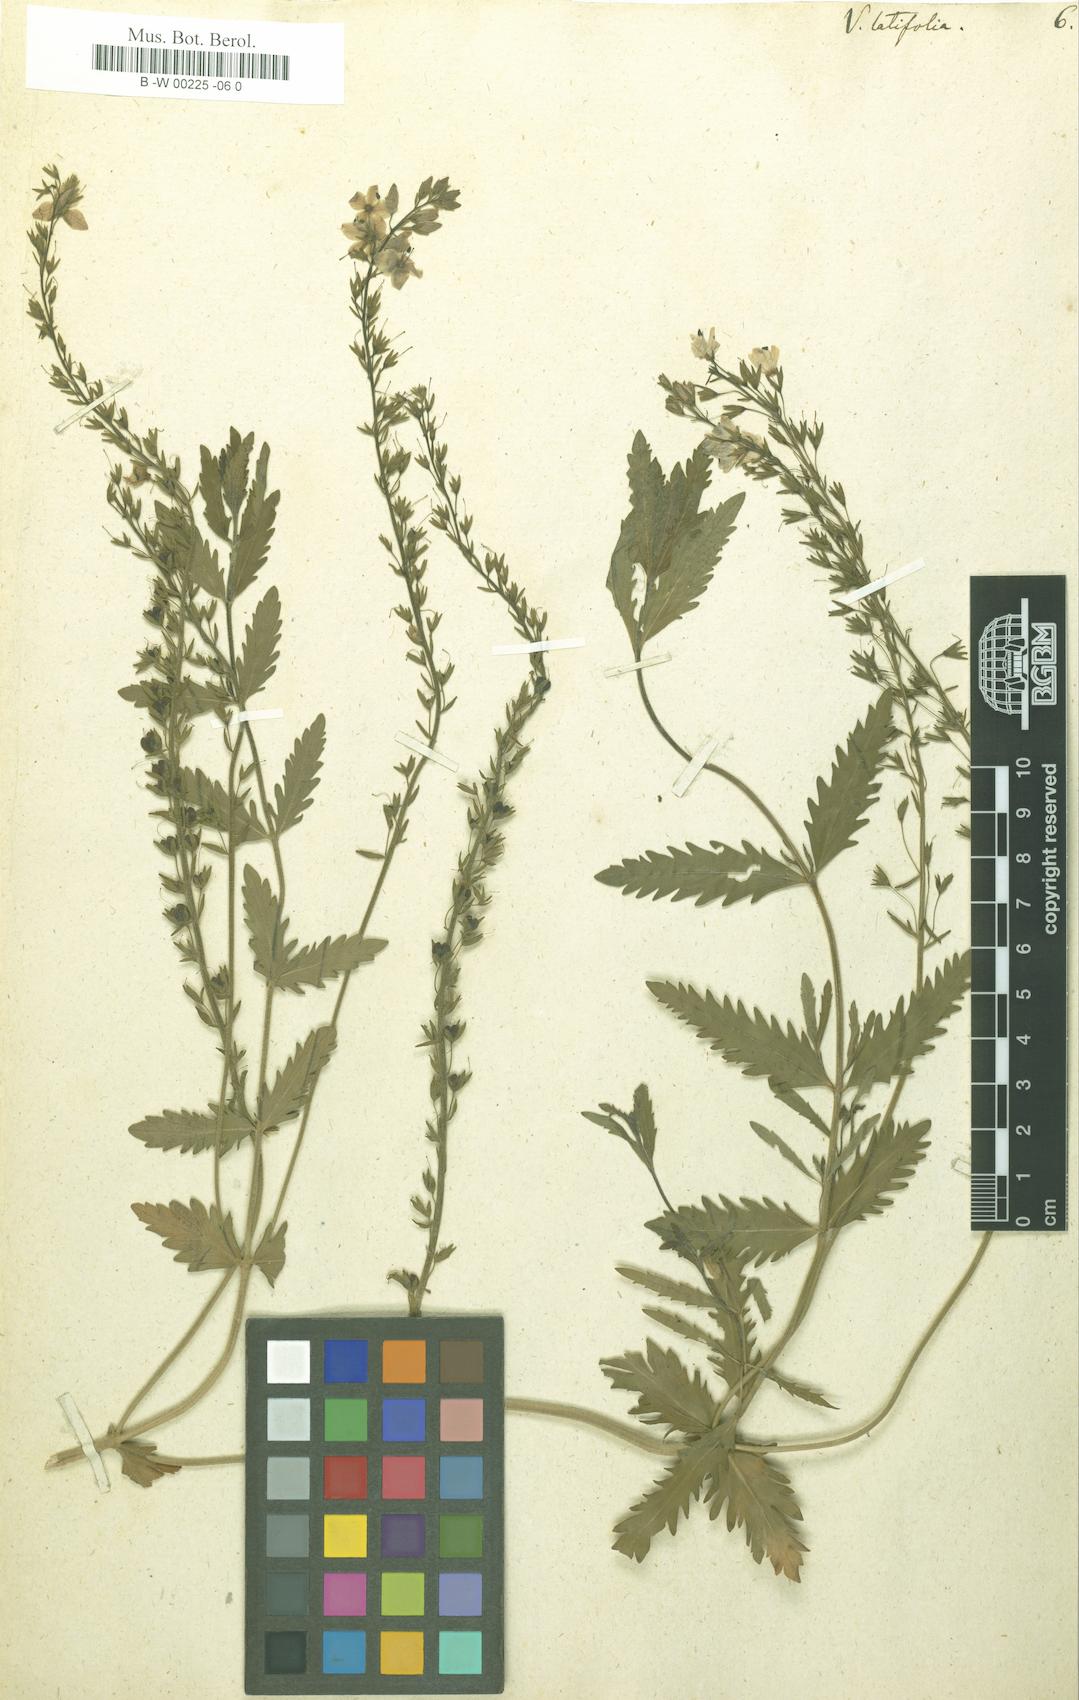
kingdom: Plantae
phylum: Tracheophyta
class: Magnoliopsida
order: Lamiales
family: Plantaginaceae
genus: Veronica
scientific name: Veronica latifolia
